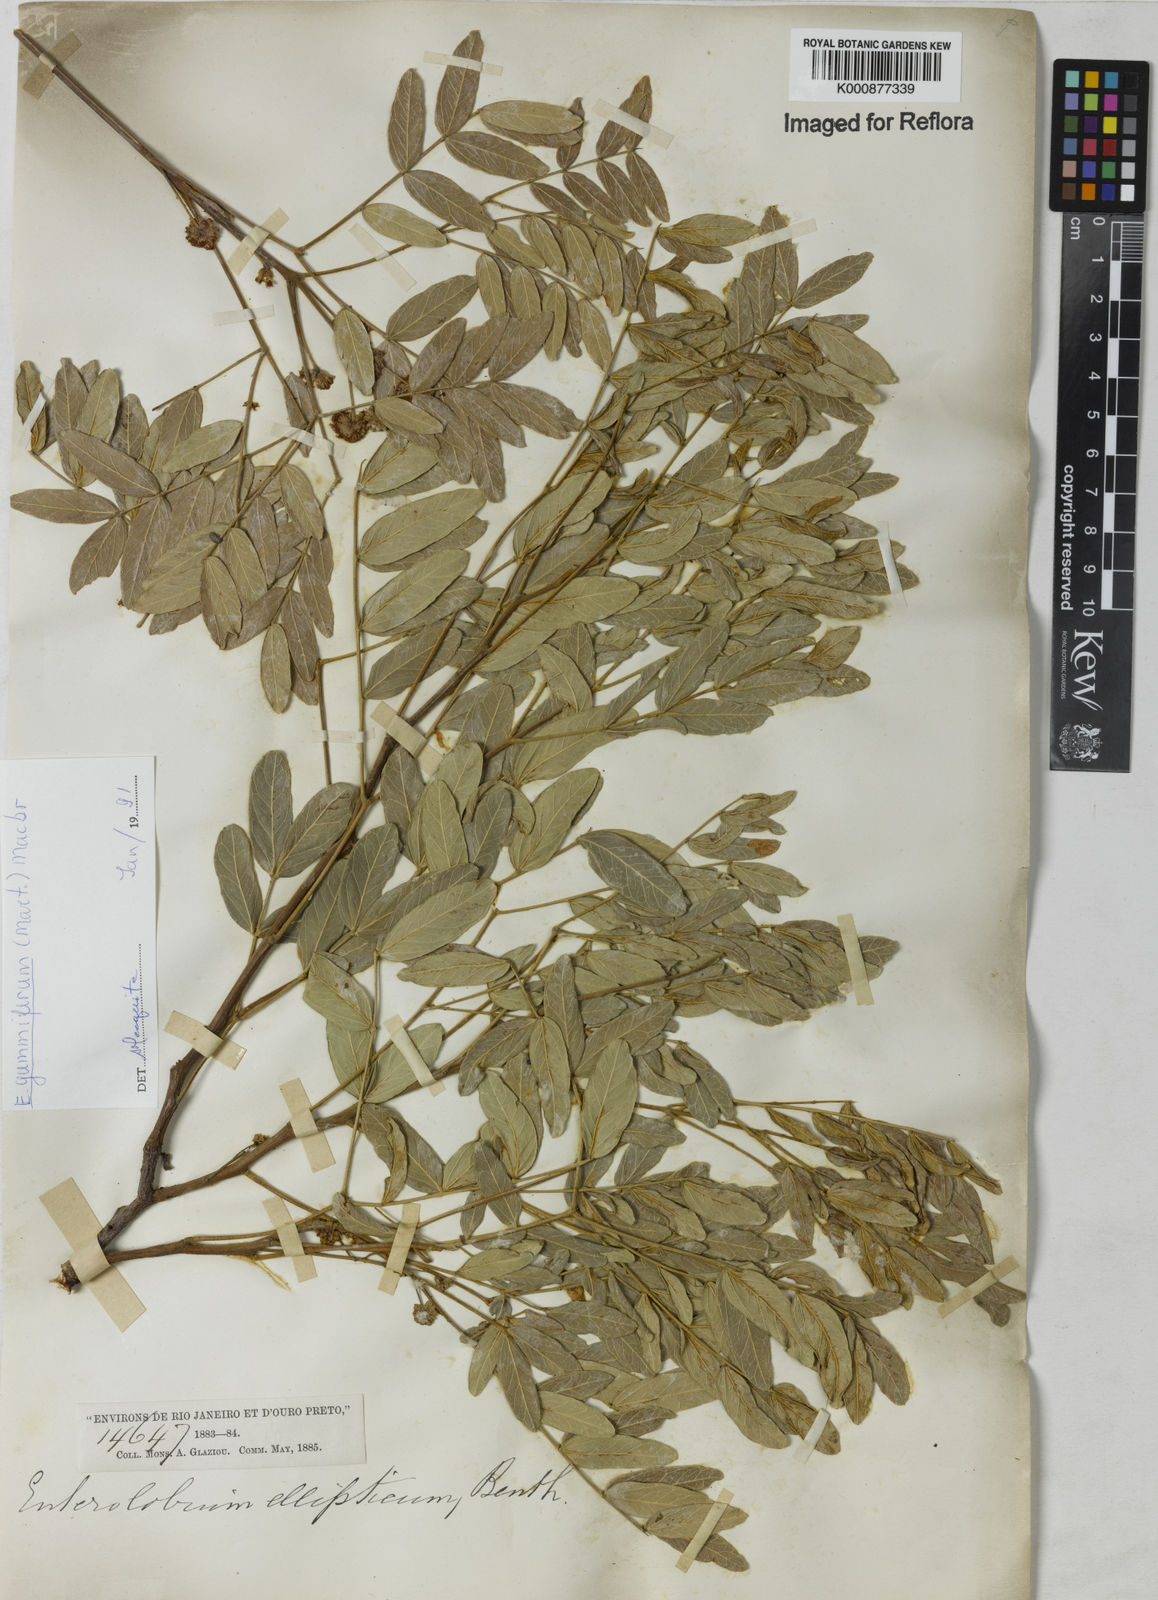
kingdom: Plantae
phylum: Tracheophyta
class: Magnoliopsida
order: Fabales
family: Fabaceae
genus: Enterolobium
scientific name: Enterolobium gummiferum
